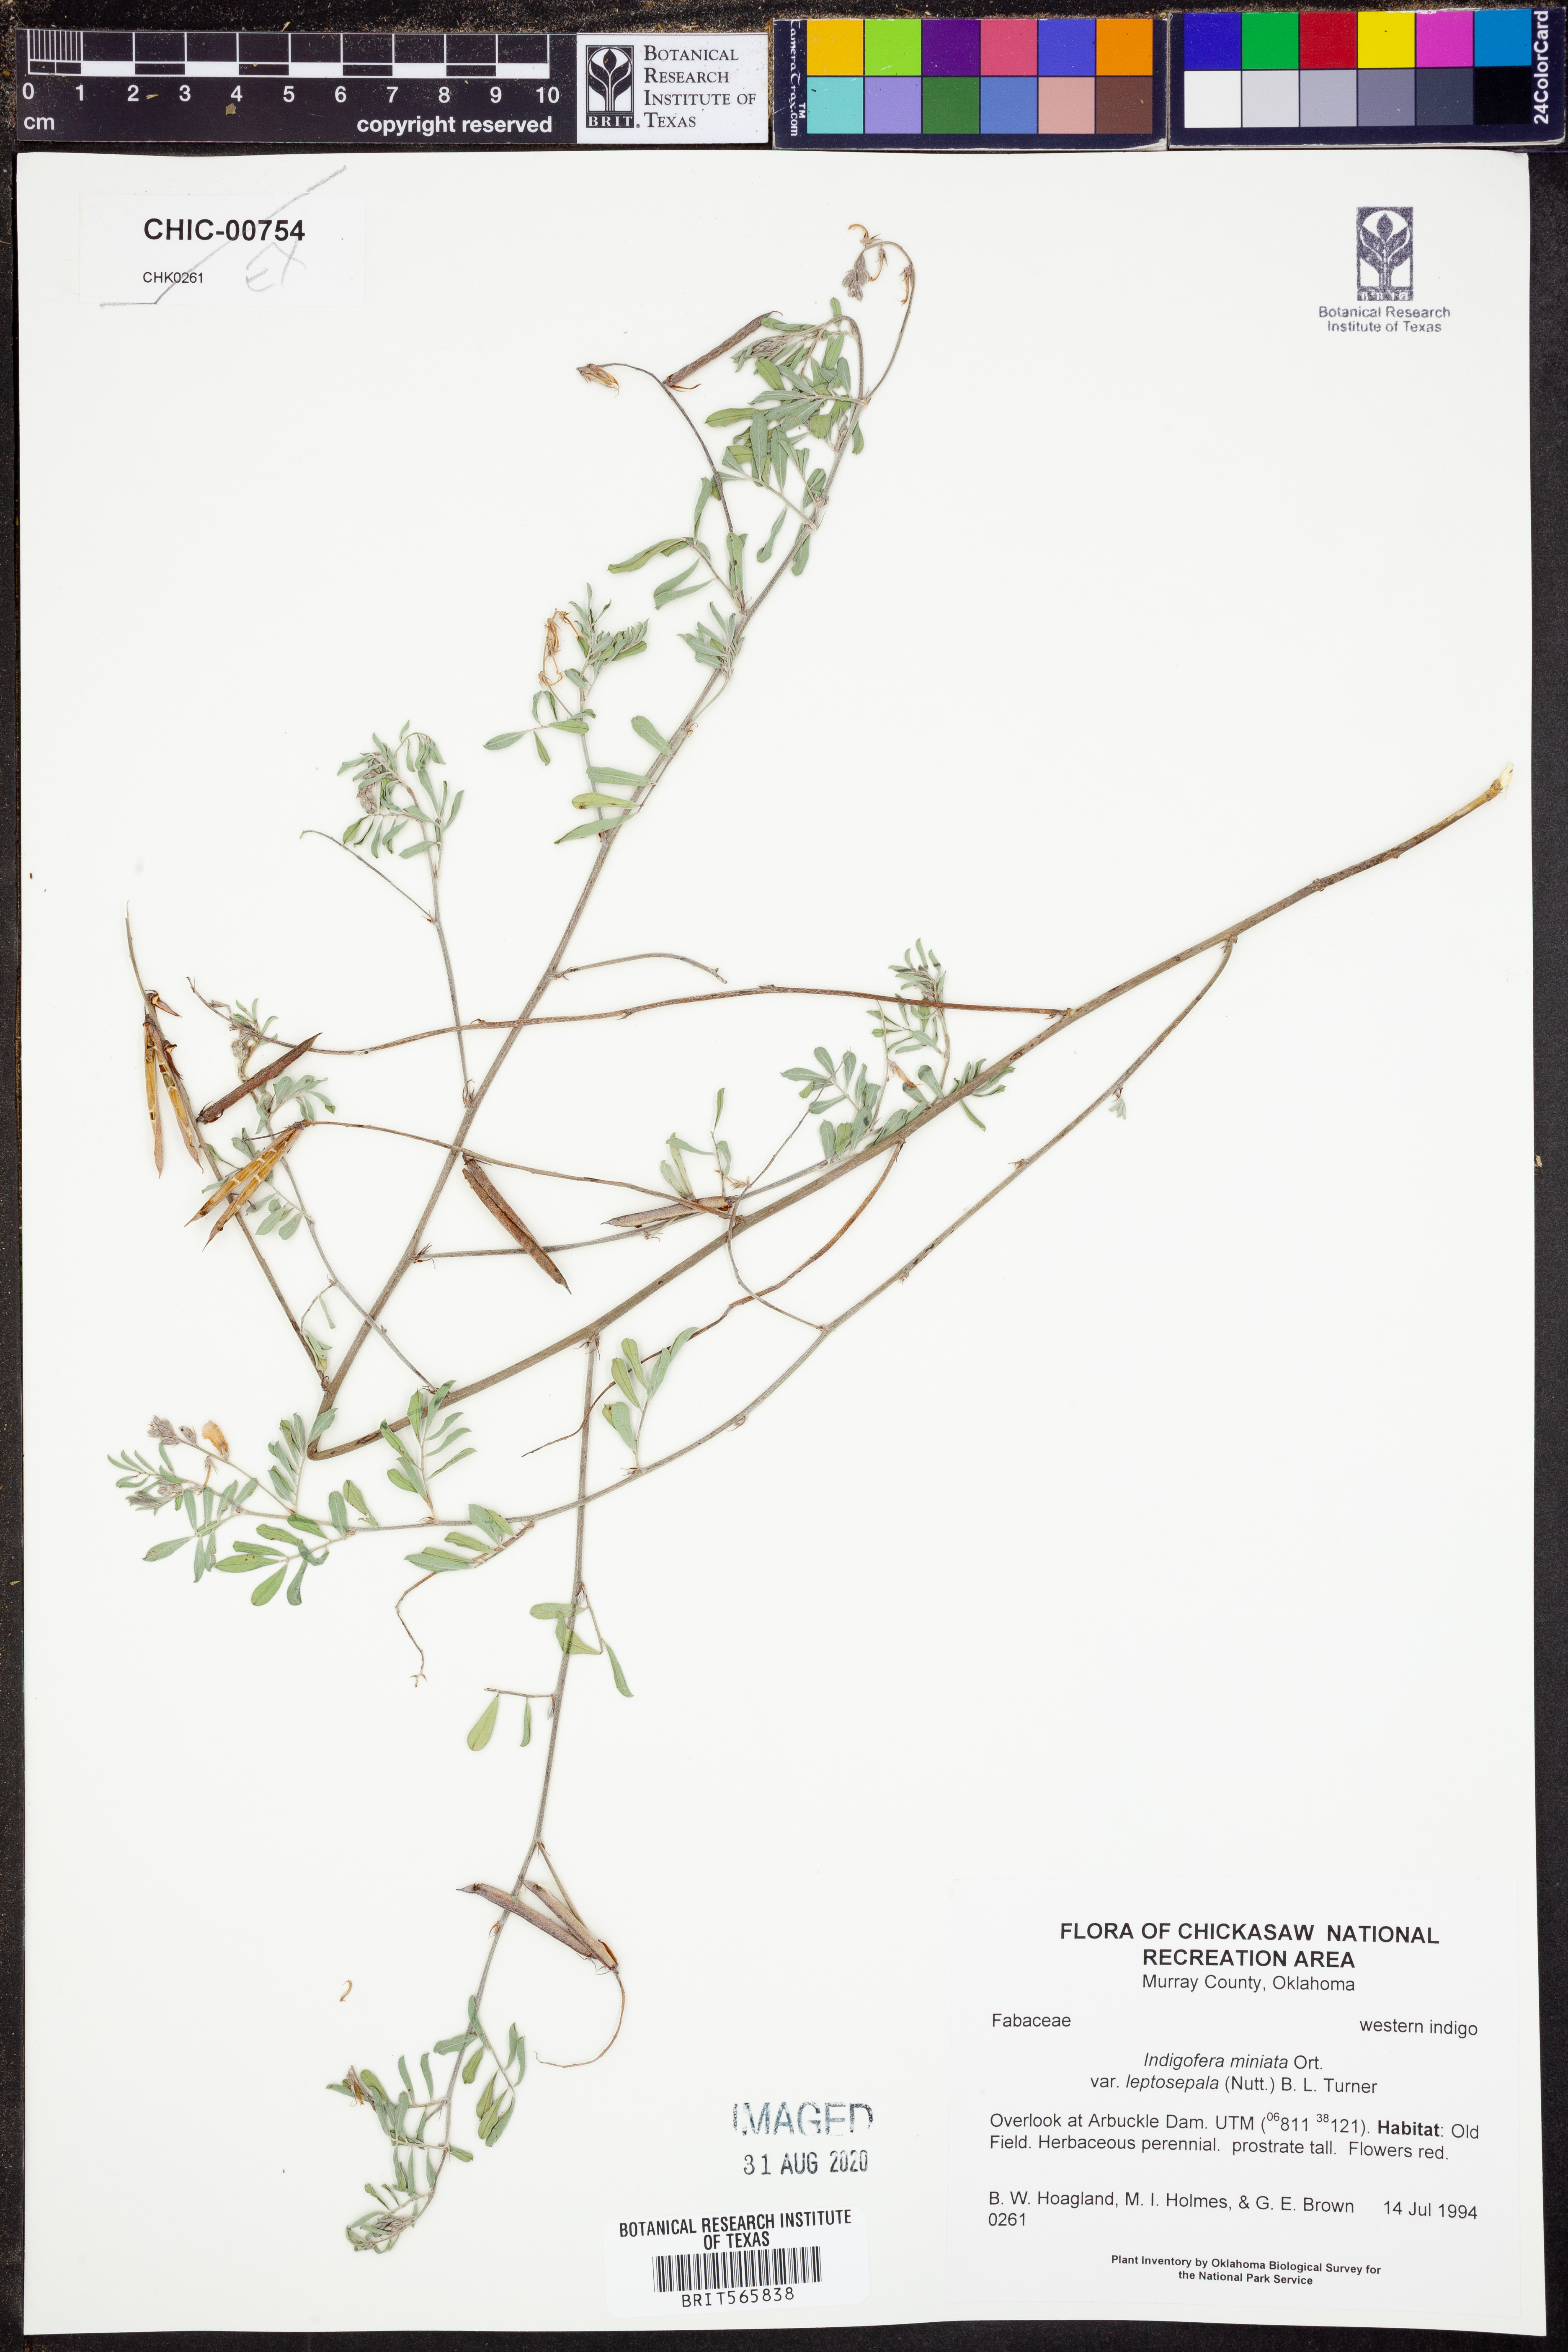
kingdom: Plantae
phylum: Tracheophyta
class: Magnoliopsida
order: Fabales
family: Fabaceae
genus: Indigofera
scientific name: Indigofera miniata
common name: Coast indigo
